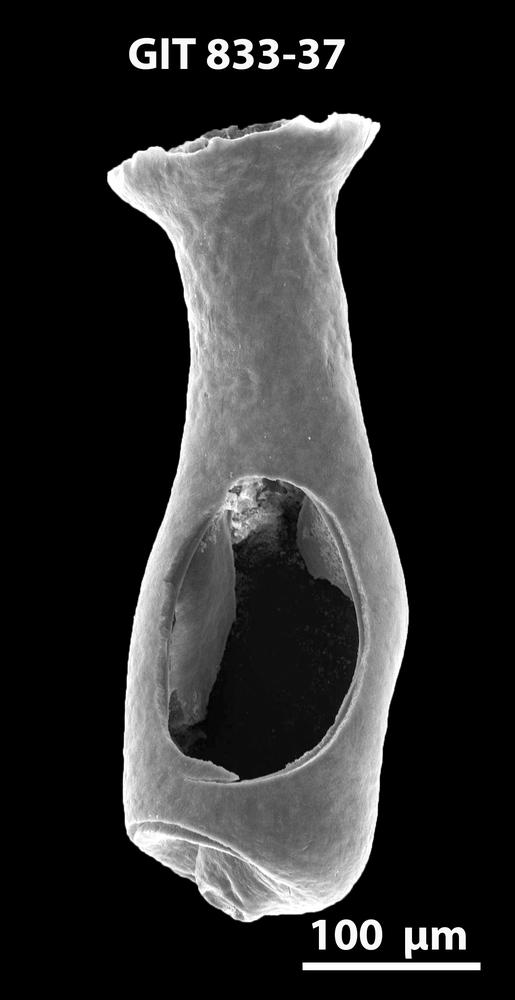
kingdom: Animalia
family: Lagenochitinidae
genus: Lagenochitina
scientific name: Lagenochitina megaesthonica
